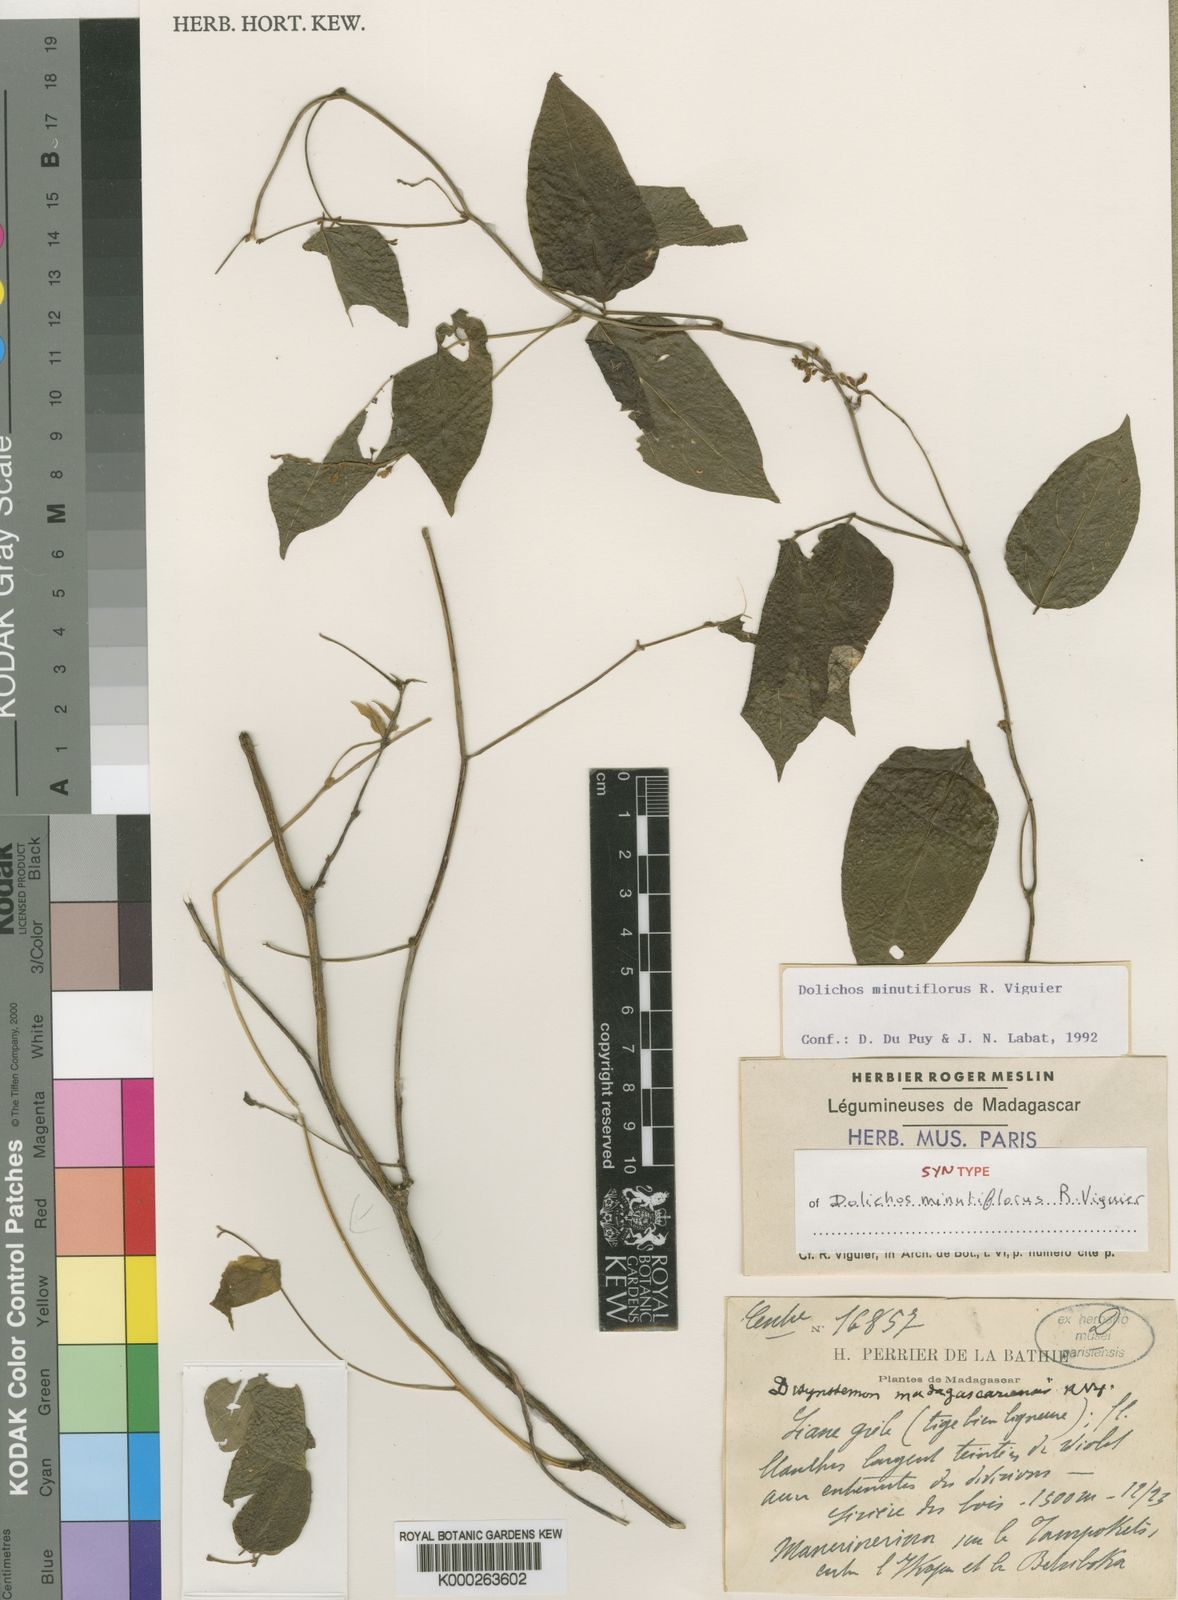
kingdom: Plantae
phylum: Tracheophyta
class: Magnoliopsida
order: Fabales
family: Fabaceae
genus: Dolichos
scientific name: Dolichos minutiflorus
